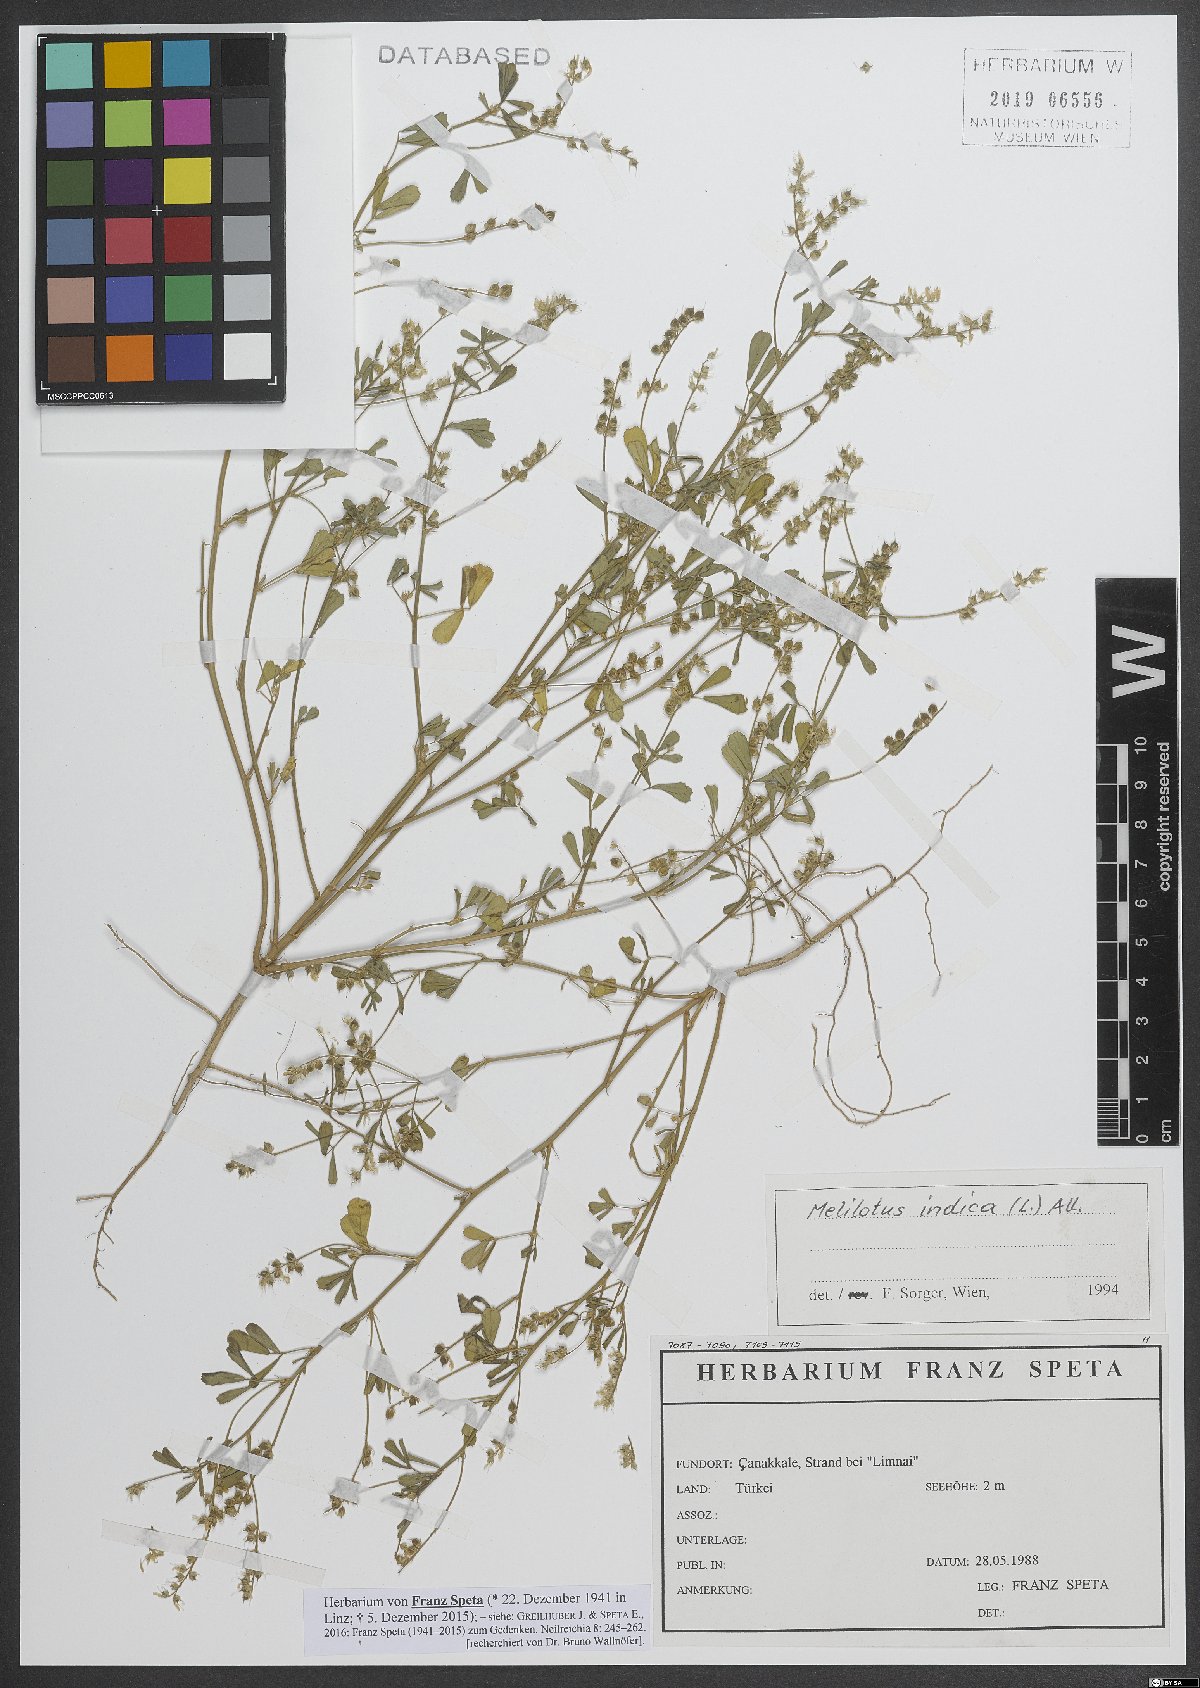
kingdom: Plantae
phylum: Tracheophyta
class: Magnoliopsida
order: Fabales
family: Fabaceae
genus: Melilotus
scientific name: Melilotus indicus
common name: Small melilot
